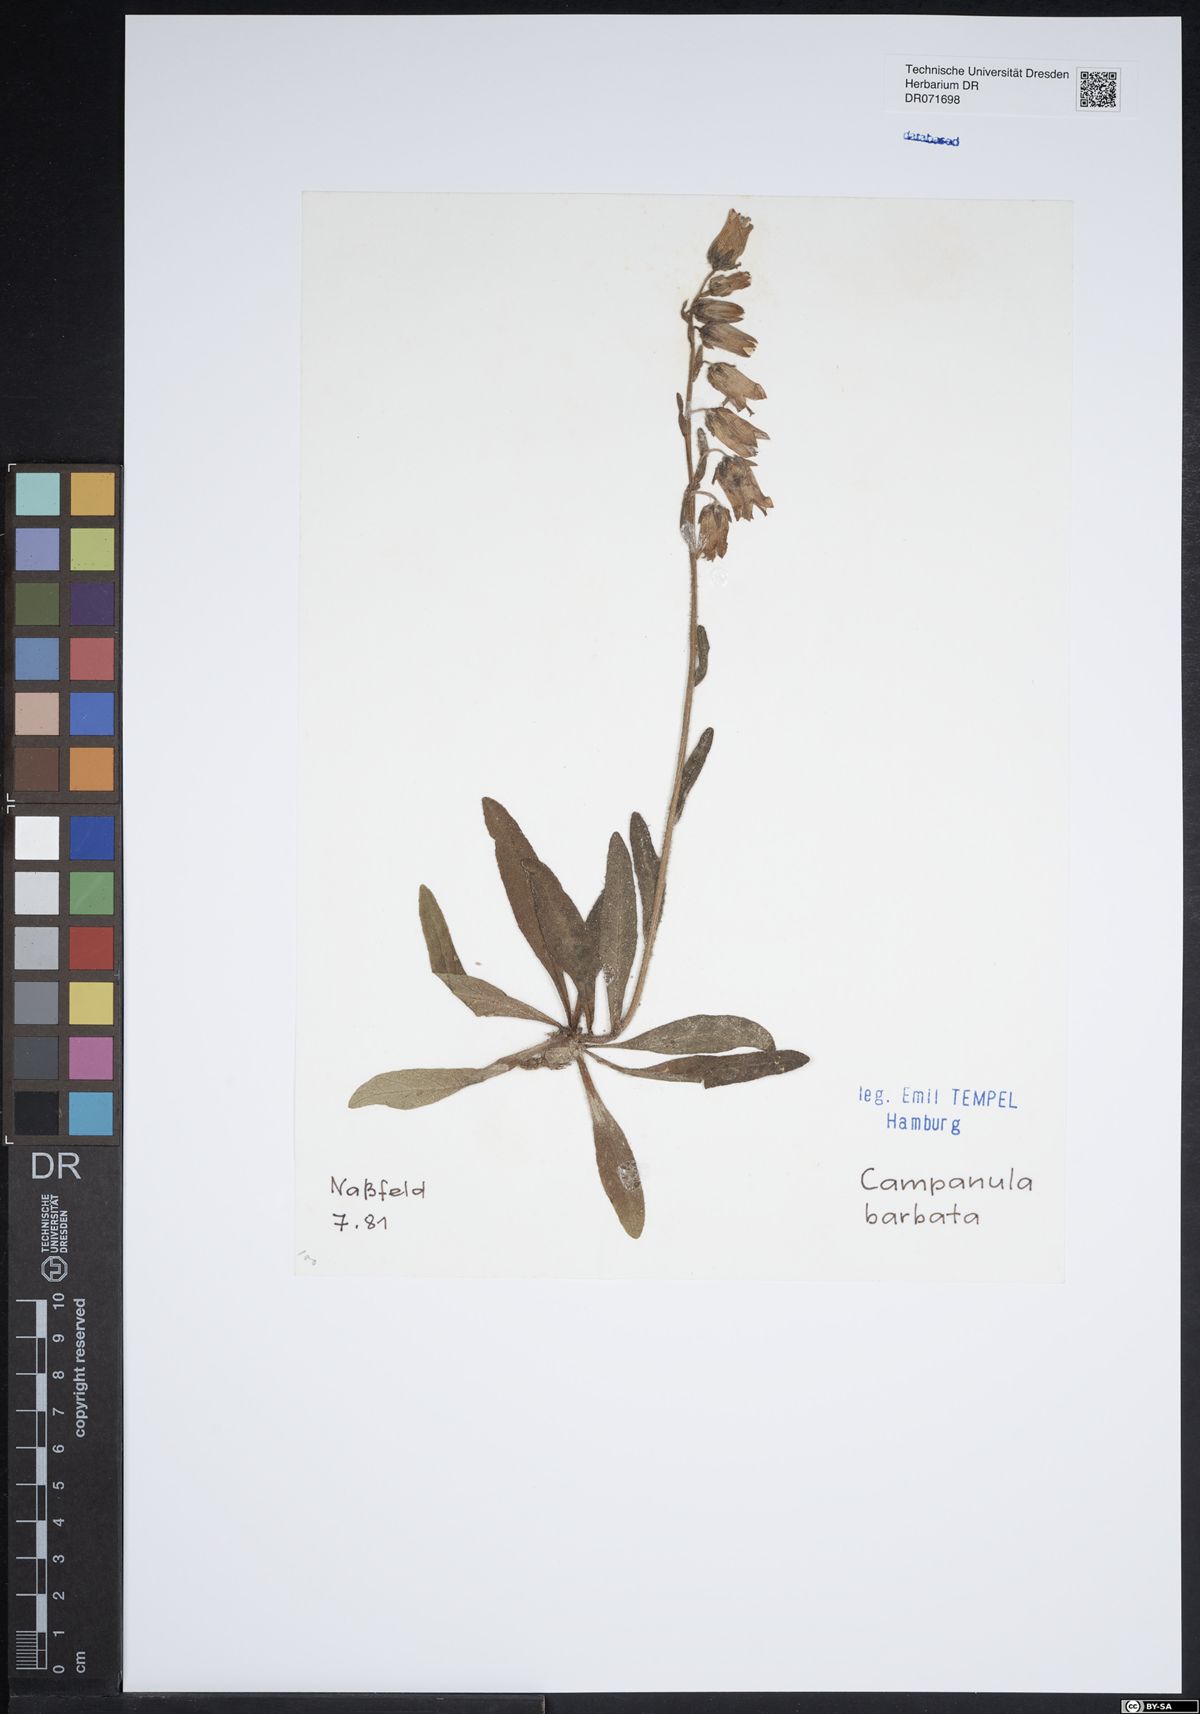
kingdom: Plantae
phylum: Tracheophyta
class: Magnoliopsida
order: Asterales
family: Campanulaceae
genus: Campanula
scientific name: Campanula barbata
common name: Bearded bellflower
